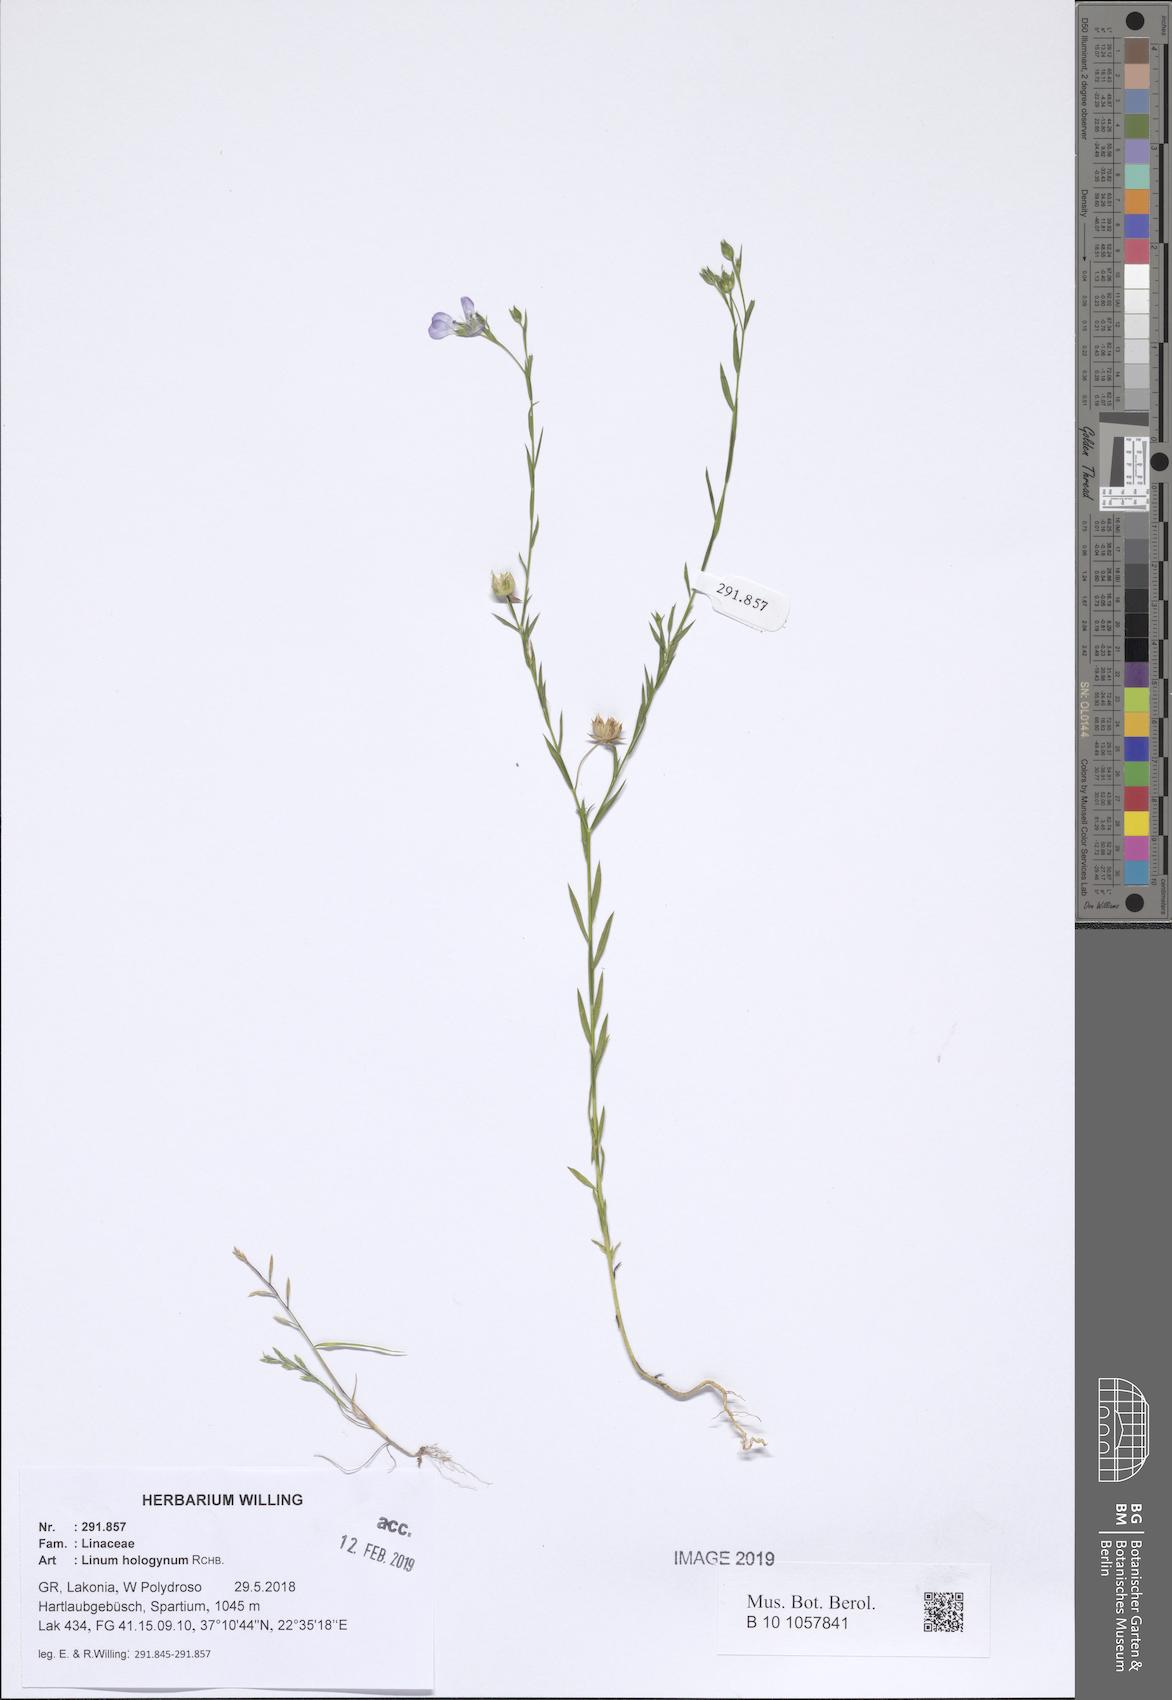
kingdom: Plantae
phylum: Tracheophyta
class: Magnoliopsida
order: Malpighiales
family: Linaceae
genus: Linum
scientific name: Linum bienne
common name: Pale flax
